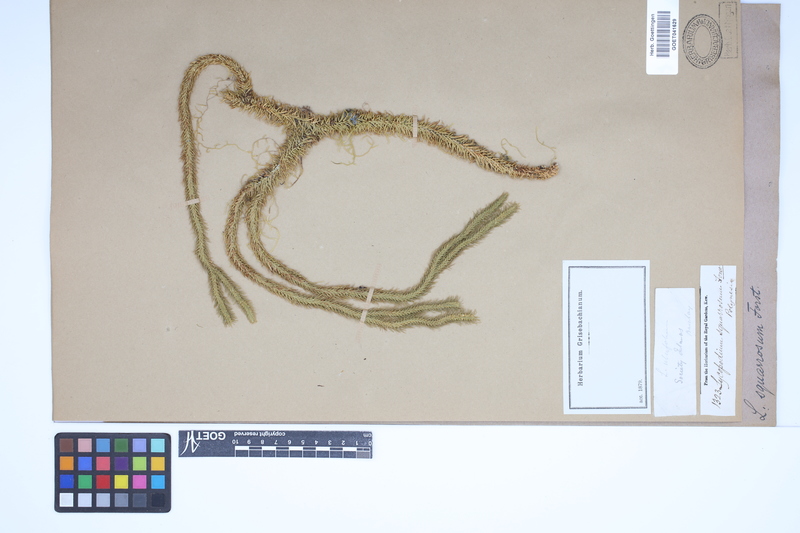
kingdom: Plantae
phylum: Tracheophyta
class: Lycopodiopsida
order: Lycopodiales
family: Lycopodiaceae
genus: Phlegmariurus
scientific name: Phlegmariurus squarrosus
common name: Rock tassel-fern
